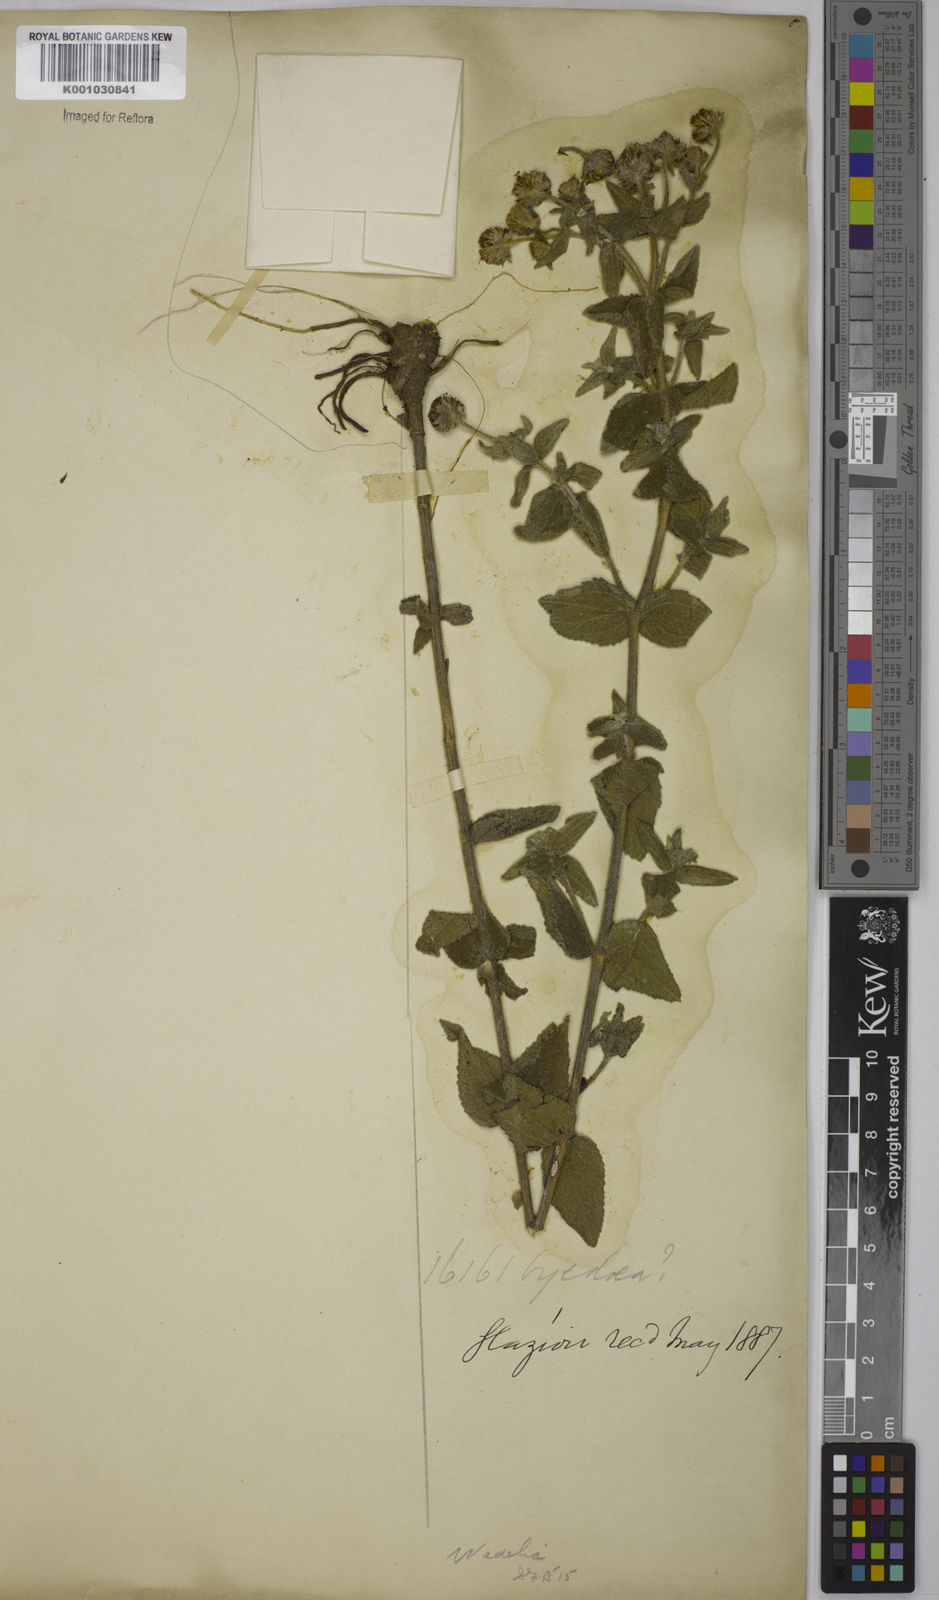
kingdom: Plantae
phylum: Tracheophyta
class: Magnoliopsida
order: Asterales
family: Asteraceae
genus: Wedelia
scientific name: Wedelia macrodonta
